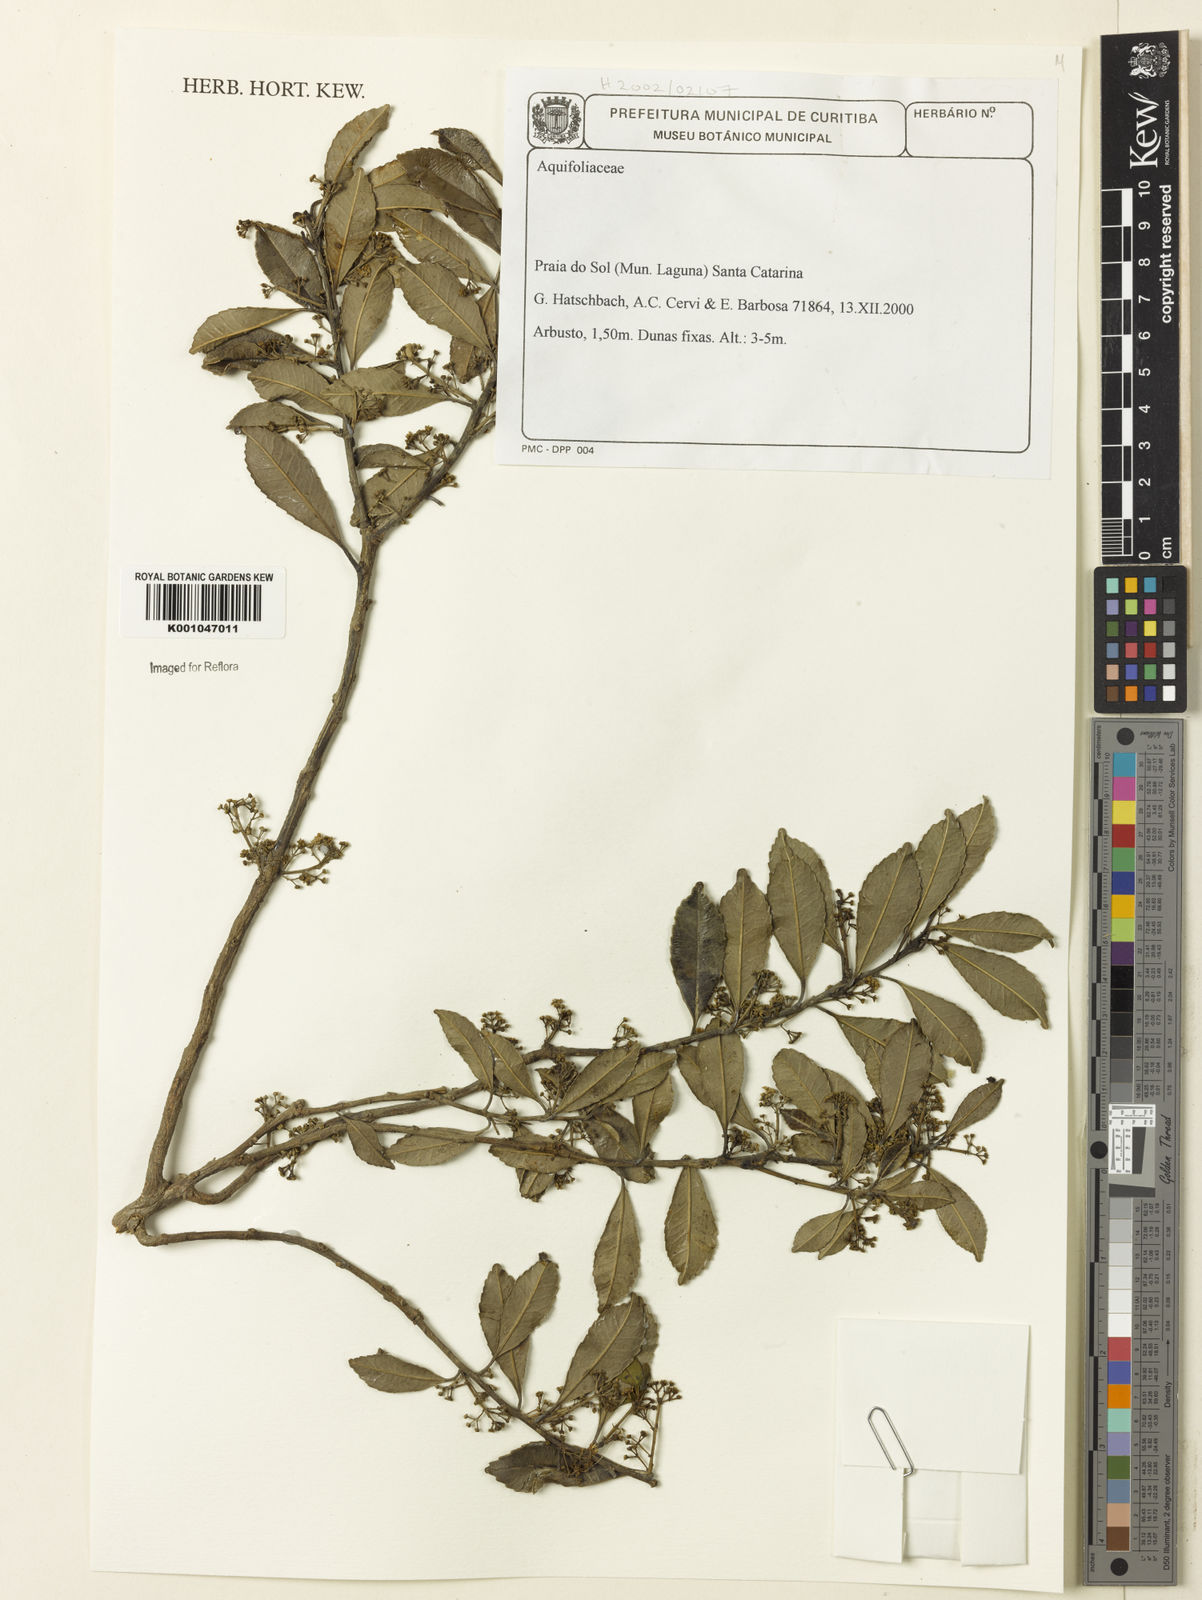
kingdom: Plantae
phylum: Tracheophyta
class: Magnoliopsida
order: Aquifoliales
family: Aquifoliaceae
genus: Ilex
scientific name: Ilex
